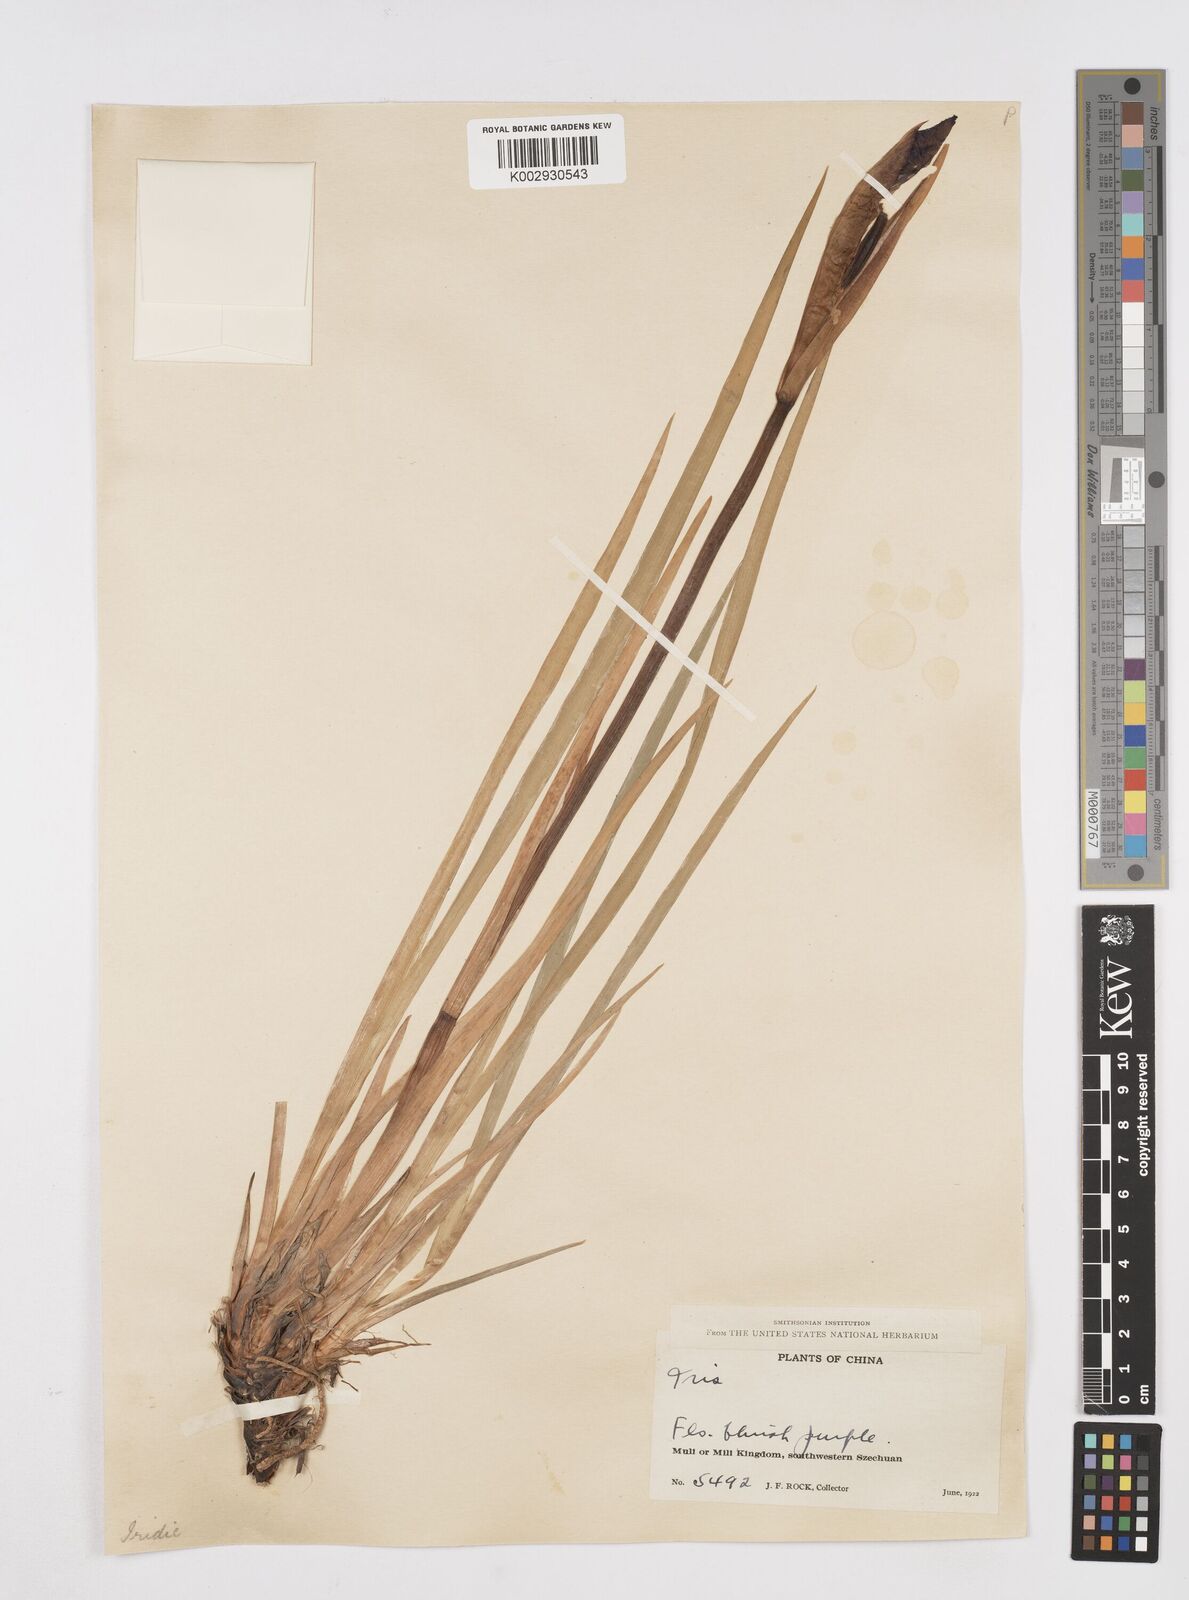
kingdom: Plantae
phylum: Tracheophyta
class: Liliopsida
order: Asparagales
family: Iridaceae
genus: Iris
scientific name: Iris bulleyana
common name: Southwest iris
